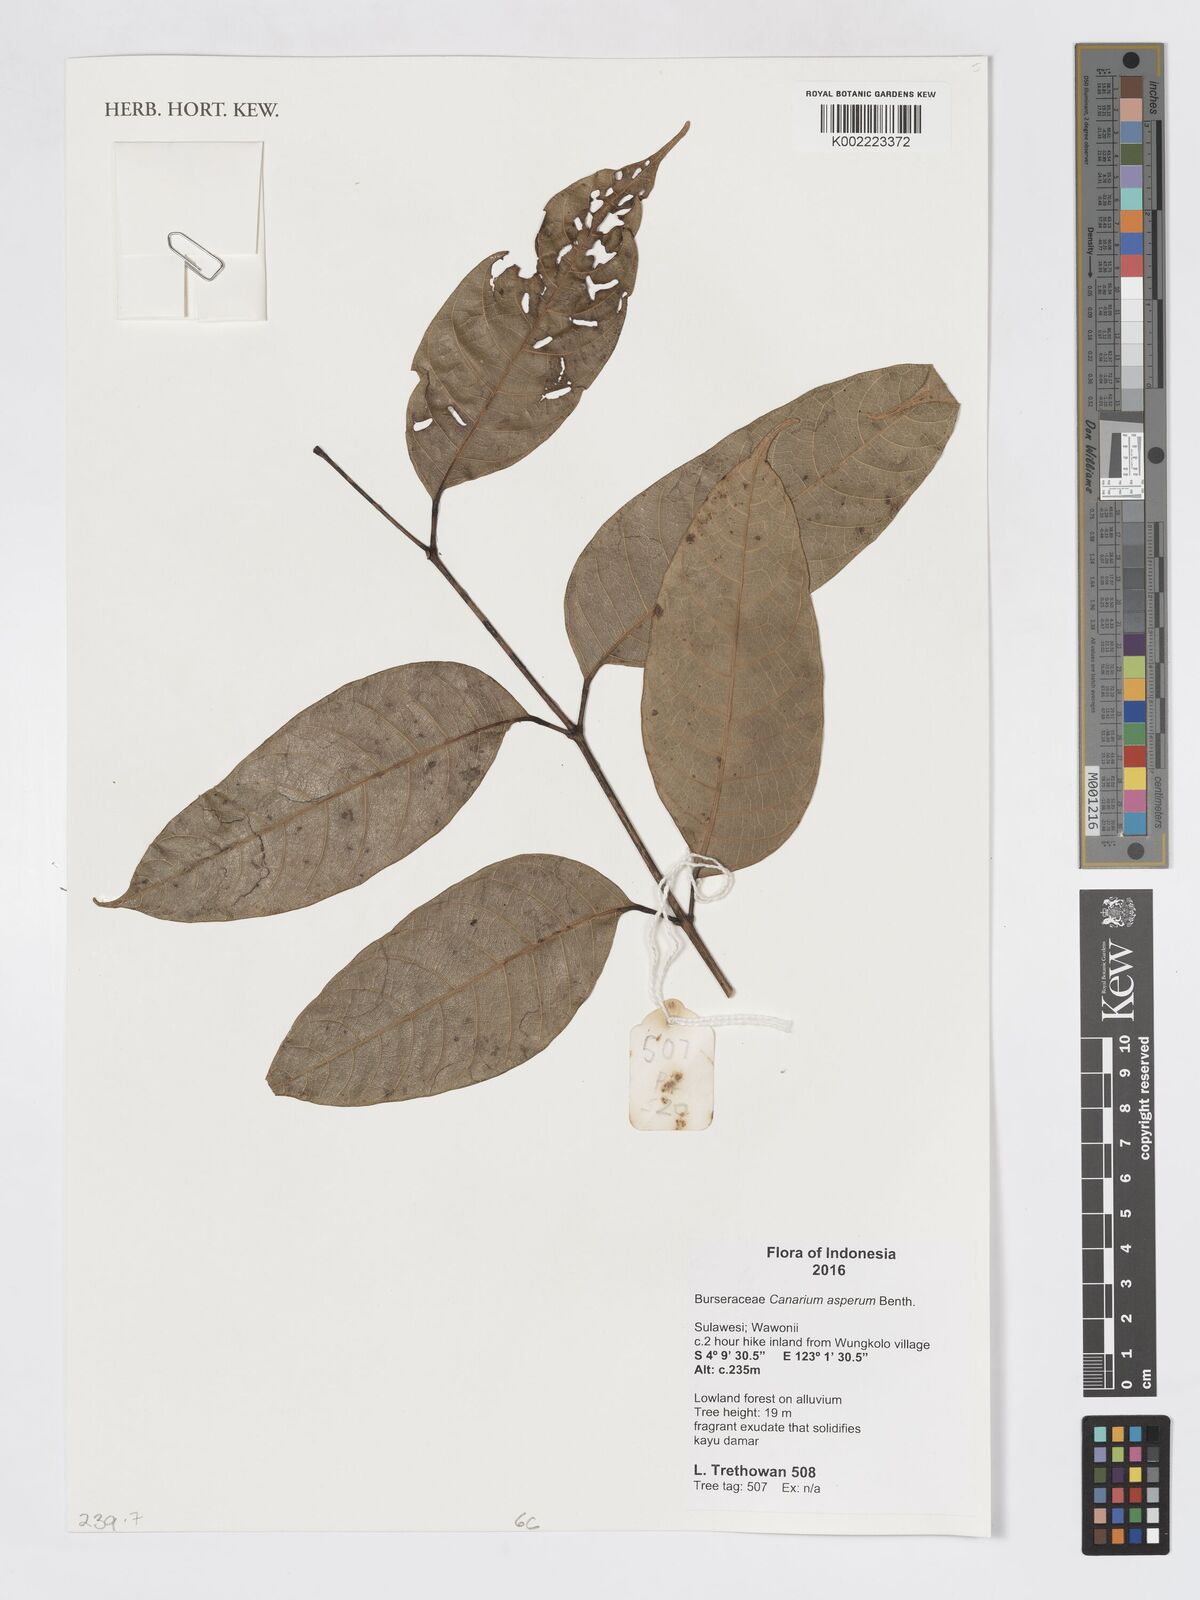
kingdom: Plantae
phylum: Tracheophyta
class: Magnoliopsida
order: Sapindales
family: Burseraceae
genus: Canarium
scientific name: Canarium asperum
